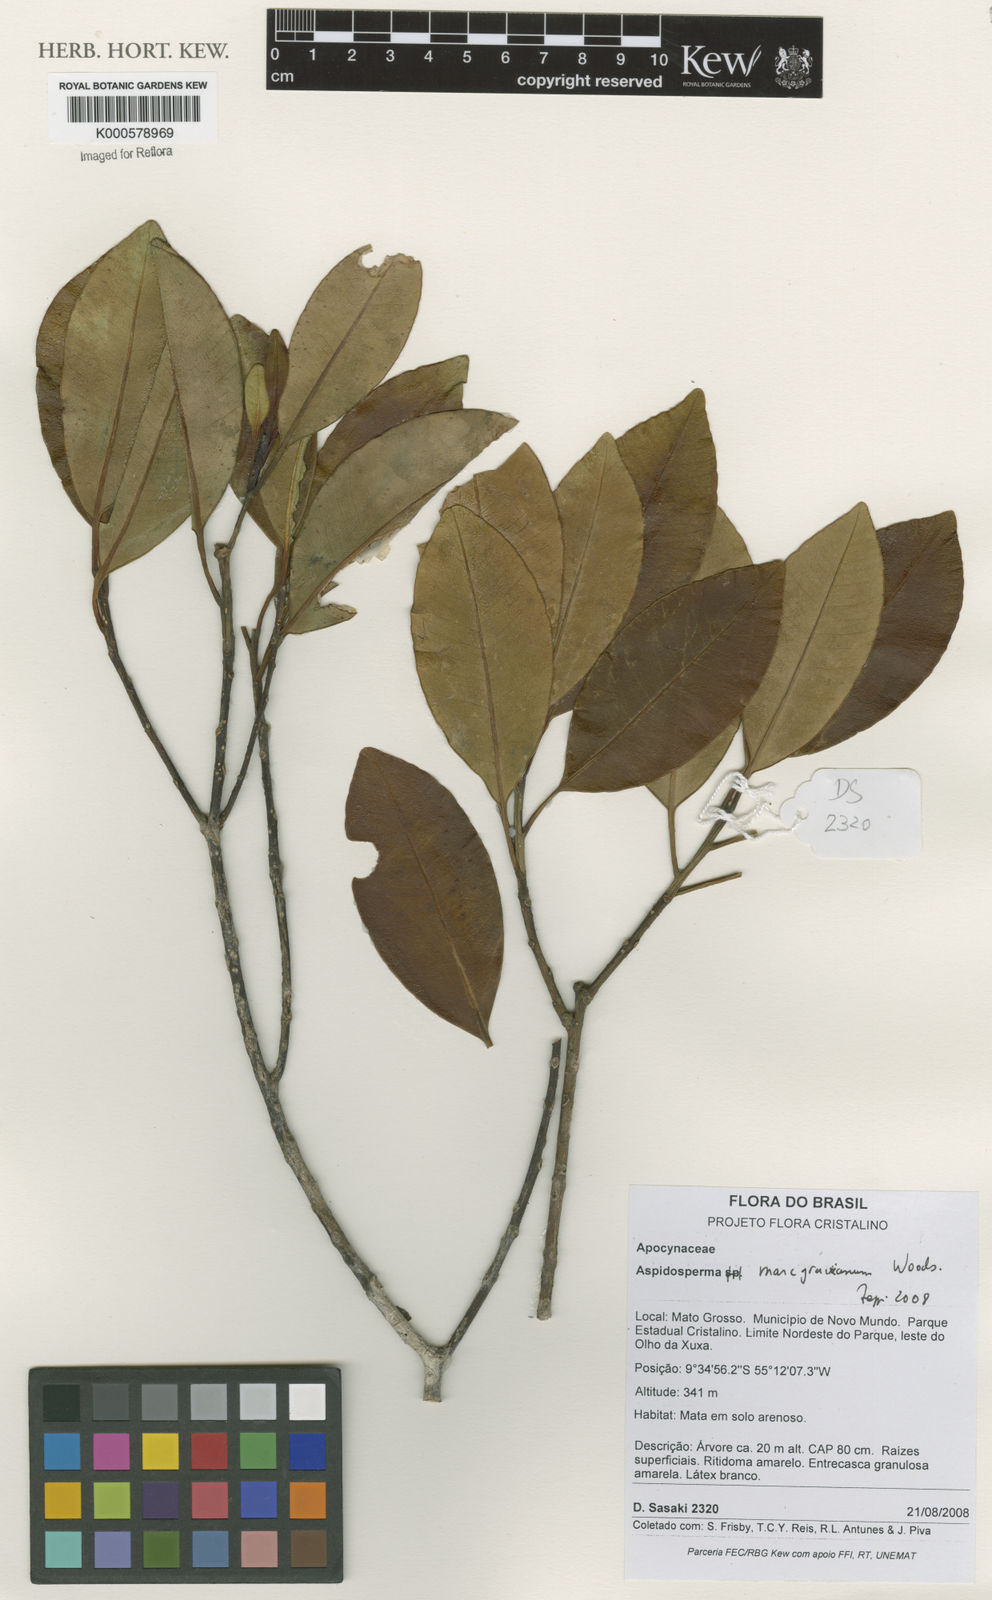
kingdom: Plantae
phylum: Tracheophyta
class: Magnoliopsida
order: Gentianales
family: Apocynaceae
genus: Aspidosperma
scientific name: Aspidosperma excelsum
